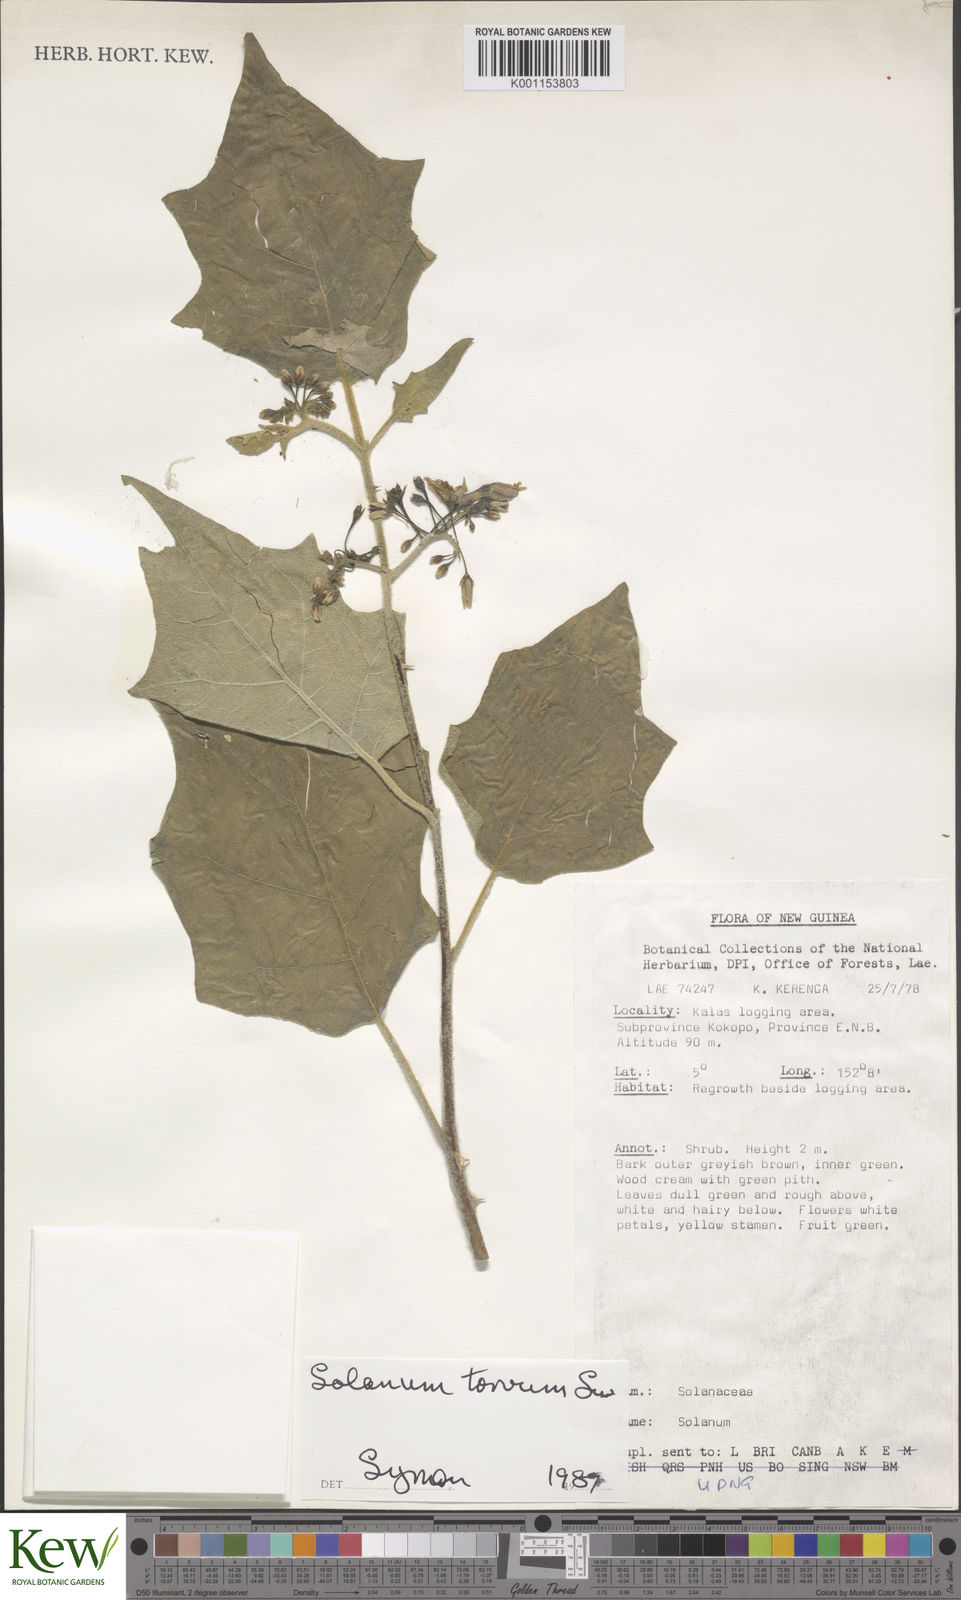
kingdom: Plantae
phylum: Tracheophyta
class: Magnoliopsida
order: Solanales
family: Solanaceae
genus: Solanum
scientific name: Solanum torvum
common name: Turkey berry
